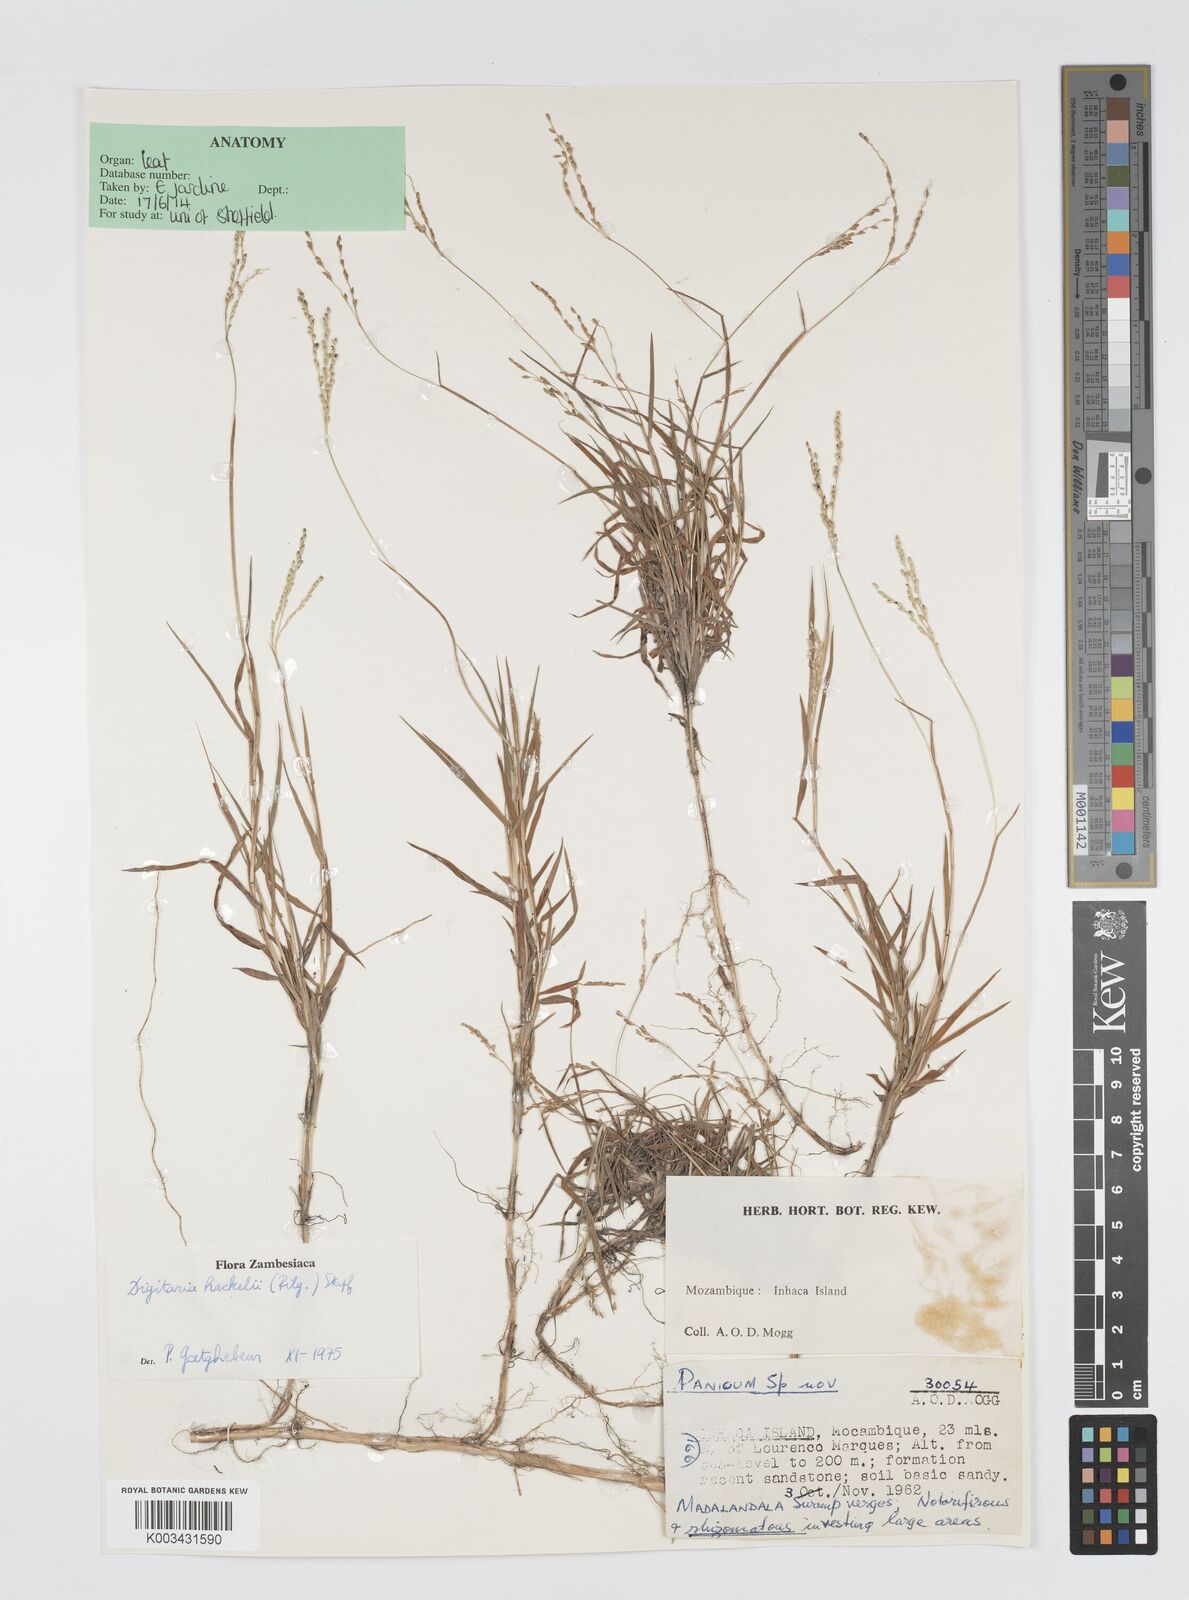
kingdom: Plantae
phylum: Tracheophyta
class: Liliopsida
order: Poales
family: Poaceae
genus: Digitaria
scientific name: Digitaria abyssinica
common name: African couchgrass
